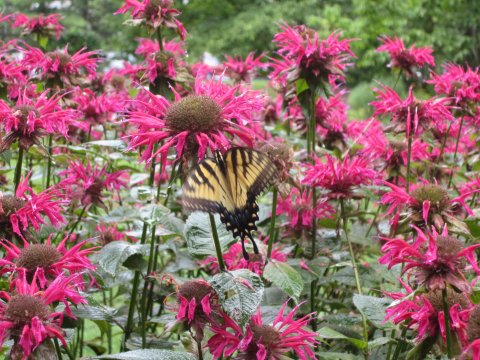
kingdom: Animalia
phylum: Arthropoda
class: Insecta
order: Lepidoptera
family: Papilionidae
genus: Pterourus
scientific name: Pterourus glaucus
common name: Eastern Tiger Swallowtail
